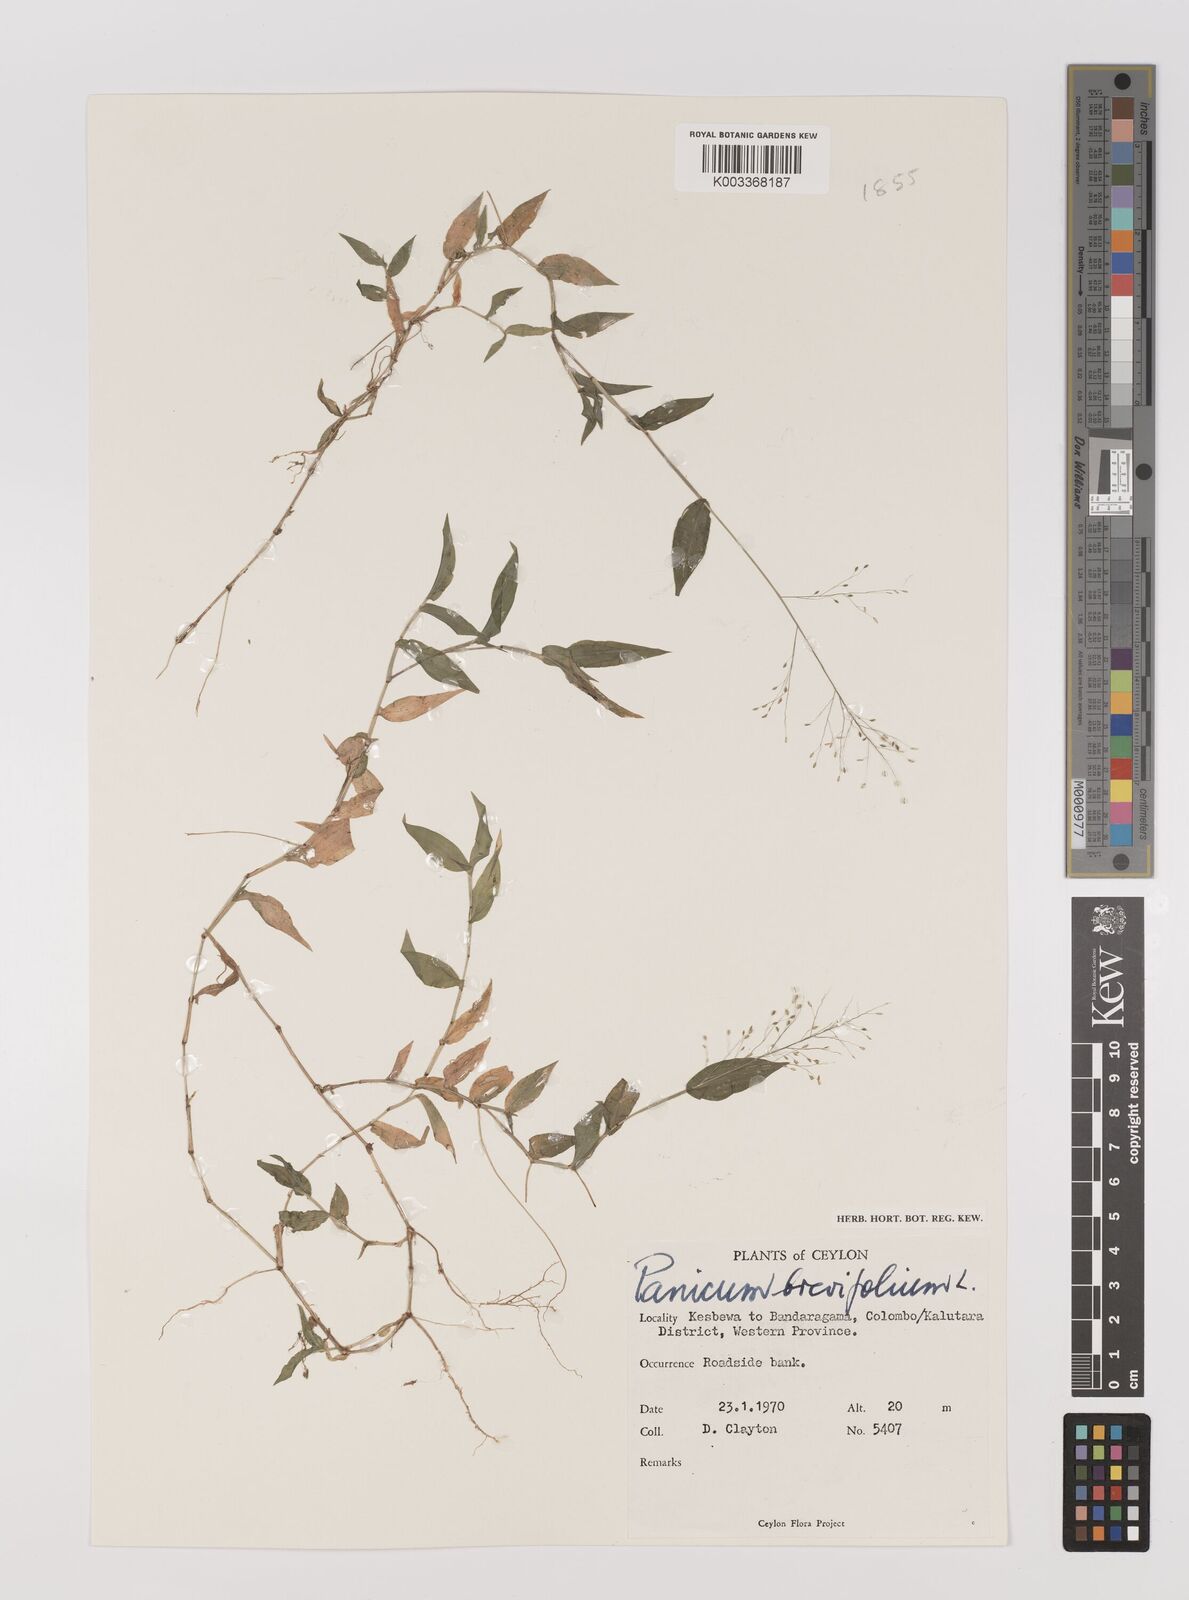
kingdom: Plantae
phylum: Tracheophyta
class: Liliopsida
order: Poales
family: Poaceae
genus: Panicum
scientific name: Panicum brevifolium
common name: Shortleaf panic grass
